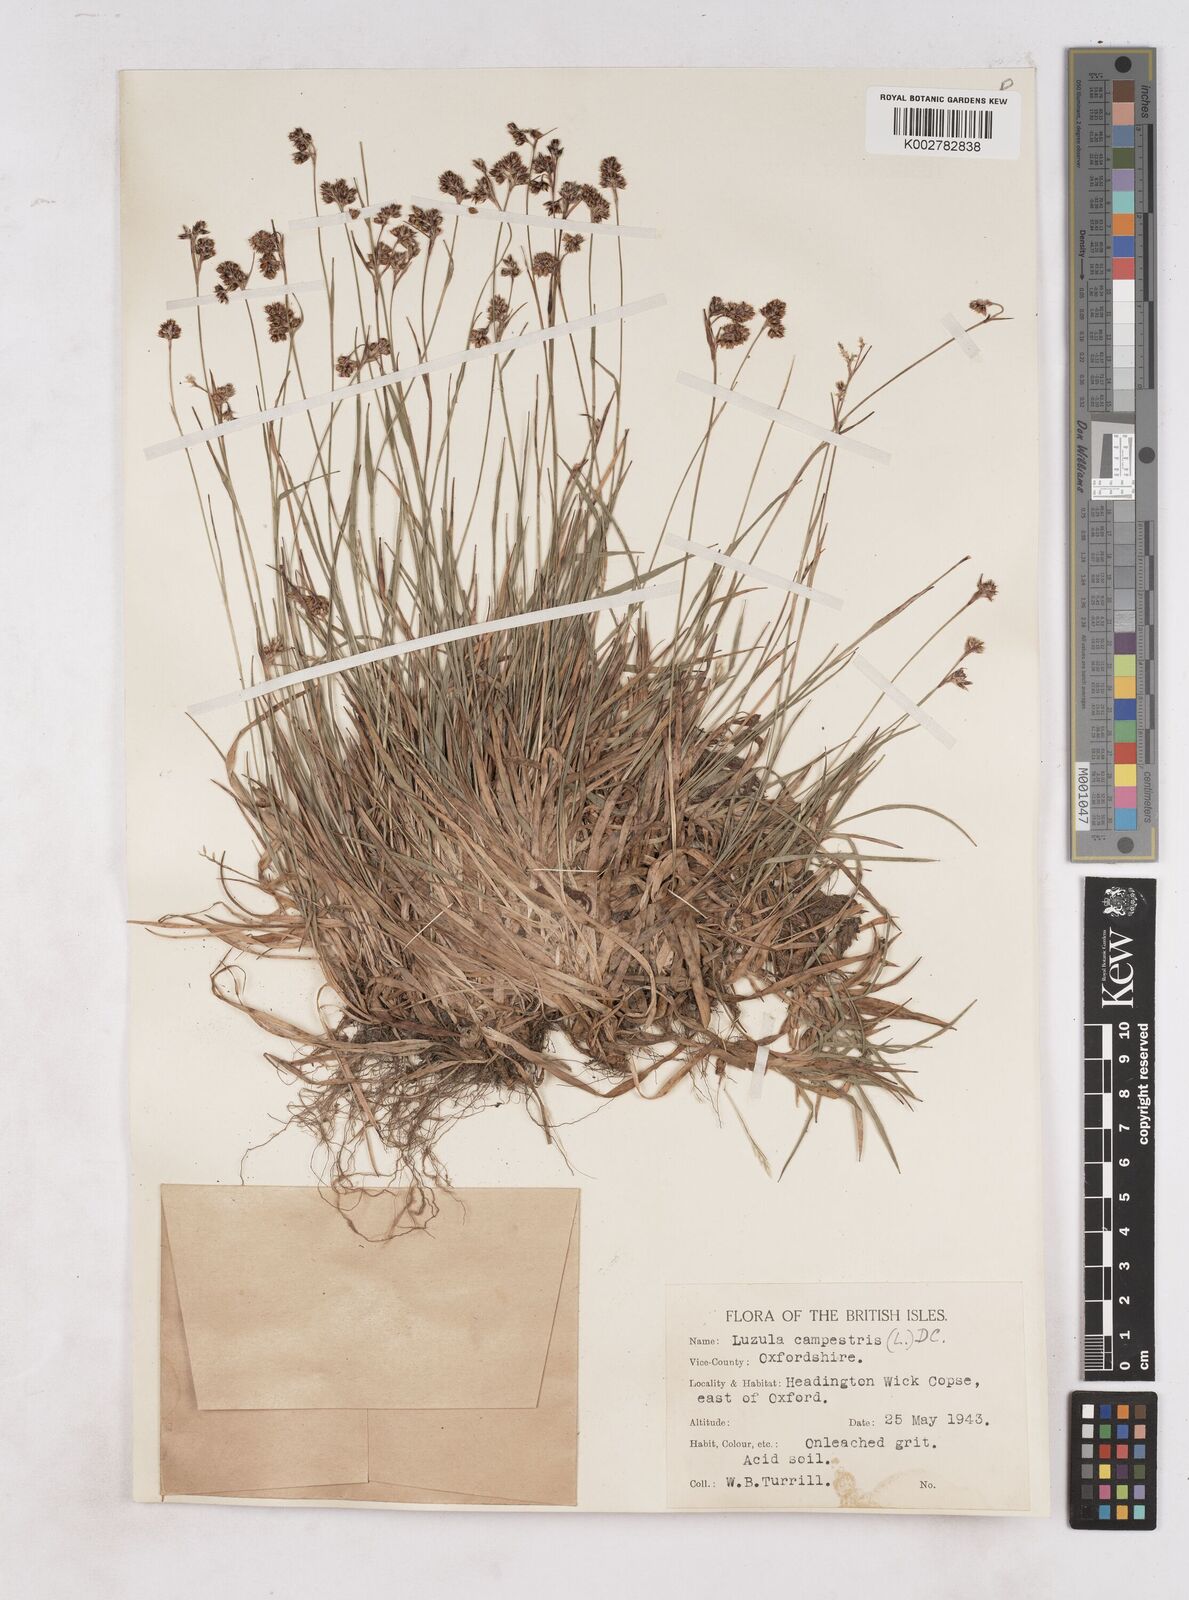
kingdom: Plantae
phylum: Tracheophyta
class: Liliopsida
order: Poales
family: Juncaceae
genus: Luzula
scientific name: Luzula campestris
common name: Field wood-rush
